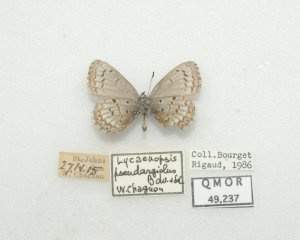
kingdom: Animalia
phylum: Arthropoda
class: Insecta
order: Lepidoptera
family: Lycaenidae
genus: Celastrina
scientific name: Celastrina lucia
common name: Northern Spring Azure
